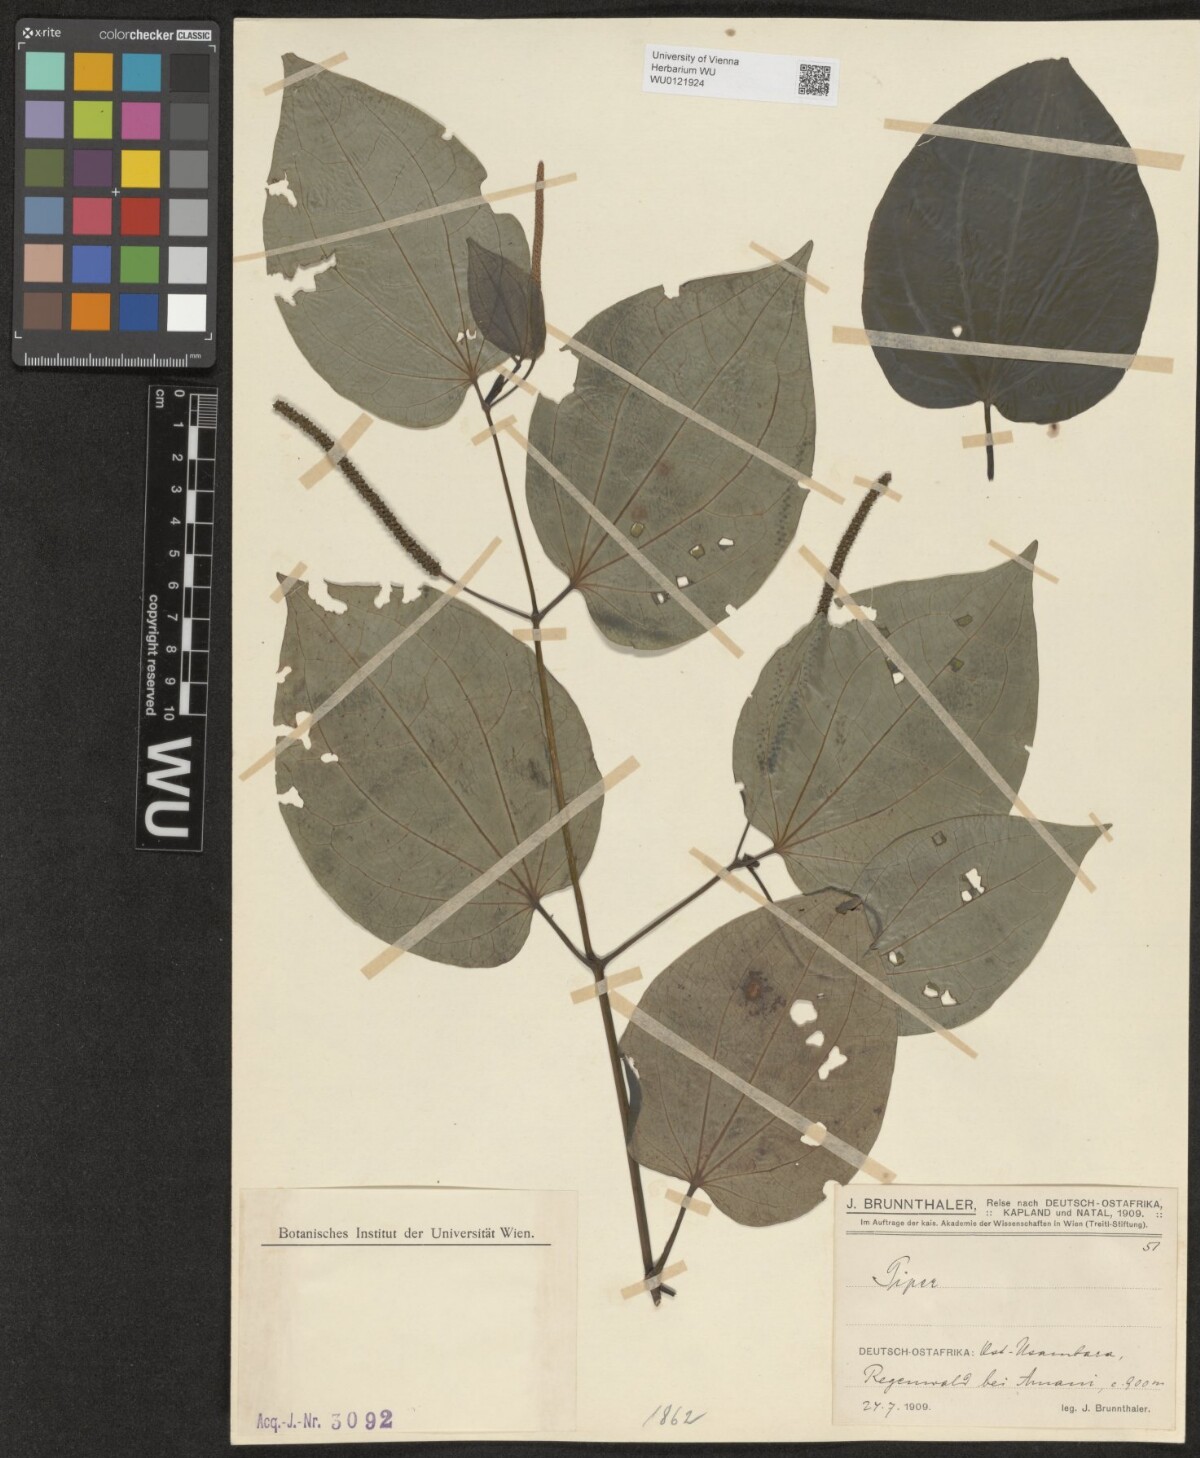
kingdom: Plantae
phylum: Tracheophyta
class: Magnoliopsida
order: Piperales
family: Piperaceae
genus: Piper
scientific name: Piper capense
